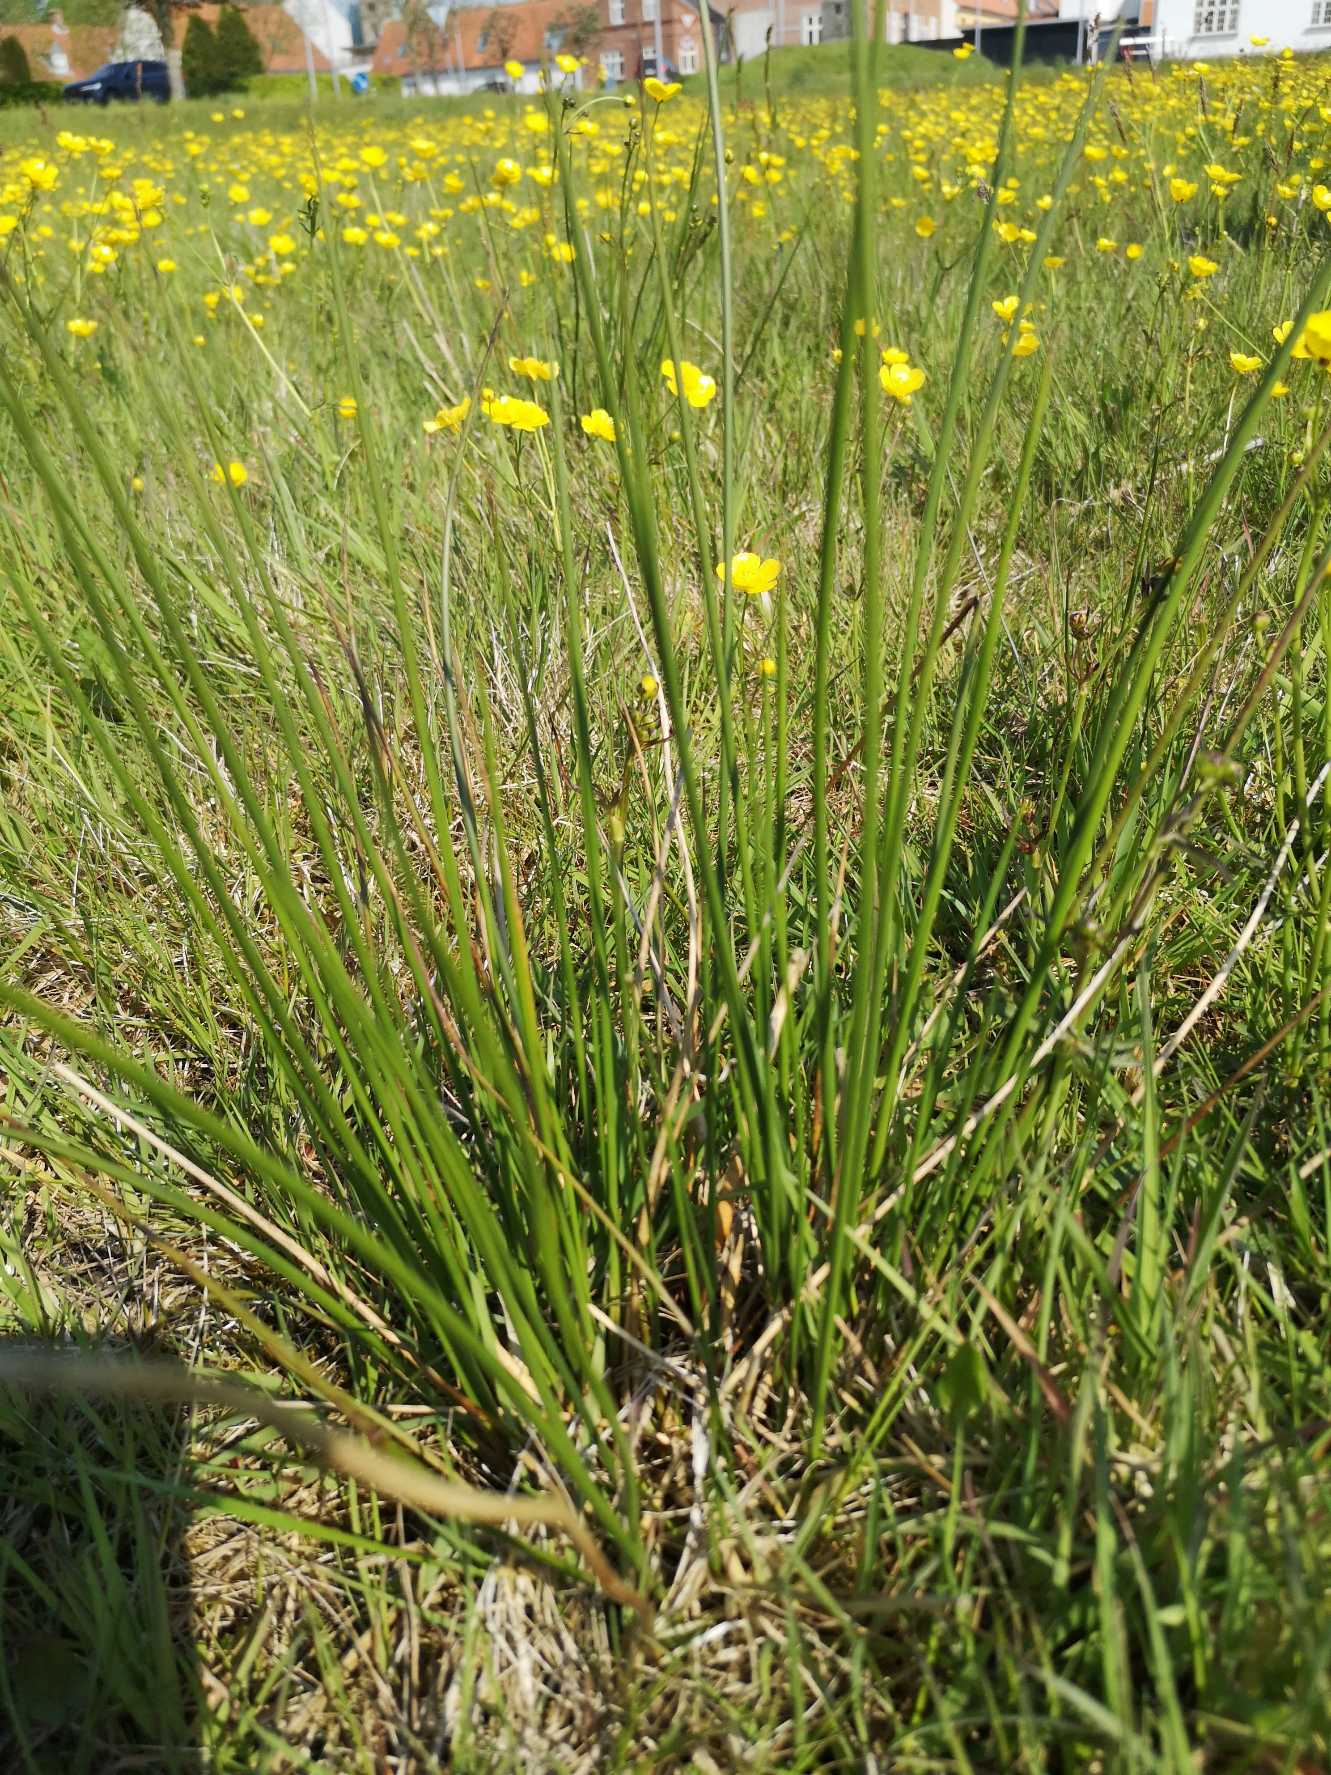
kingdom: Plantae
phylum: Tracheophyta
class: Liliopsida
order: Poales
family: Juncaceae
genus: Juncus
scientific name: Juncus effusus
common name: Lyse-siv
